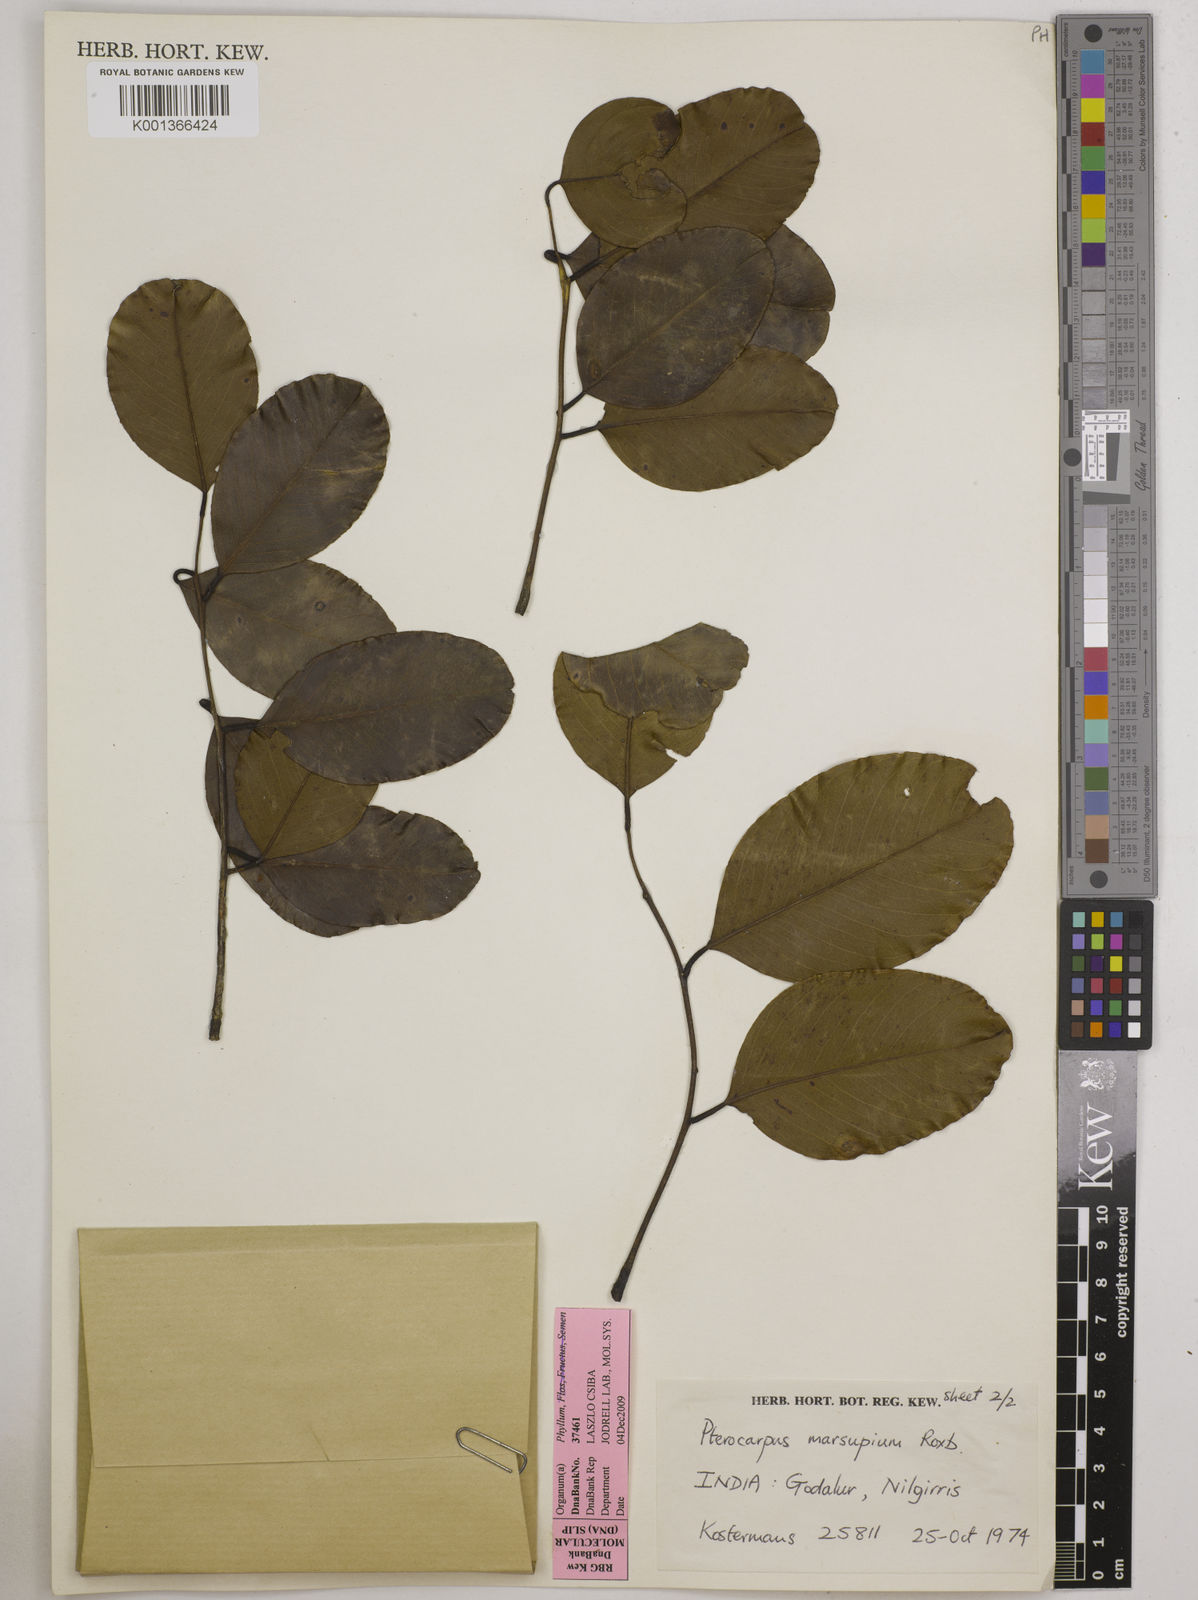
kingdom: Plantae
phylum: Tracheophyta
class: Magnoliopsida
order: Fabales
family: Fabaceae
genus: Pterocarpus
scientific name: Pterocarpus marsupium
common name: East indian/malabar kino
